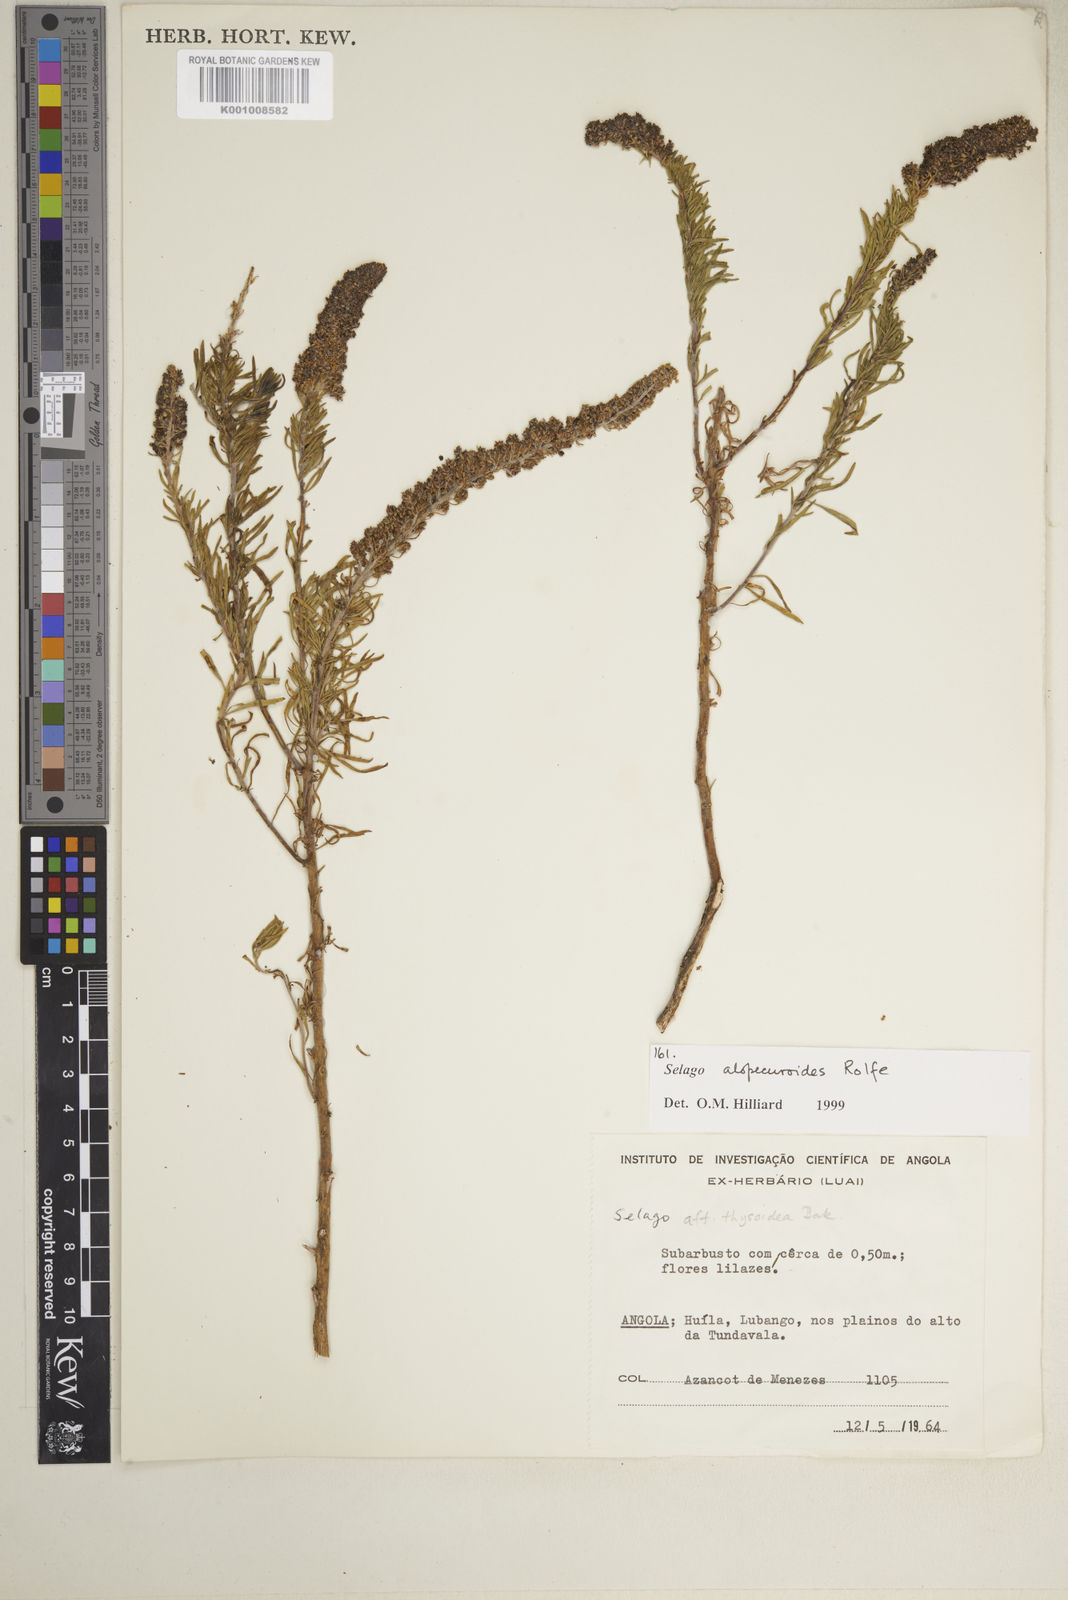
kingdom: Plantae
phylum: Tracheophyta
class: Magnoliopsida
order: Lamiales
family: Scrophulariaceae
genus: Selago
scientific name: Selago alopecuroides
